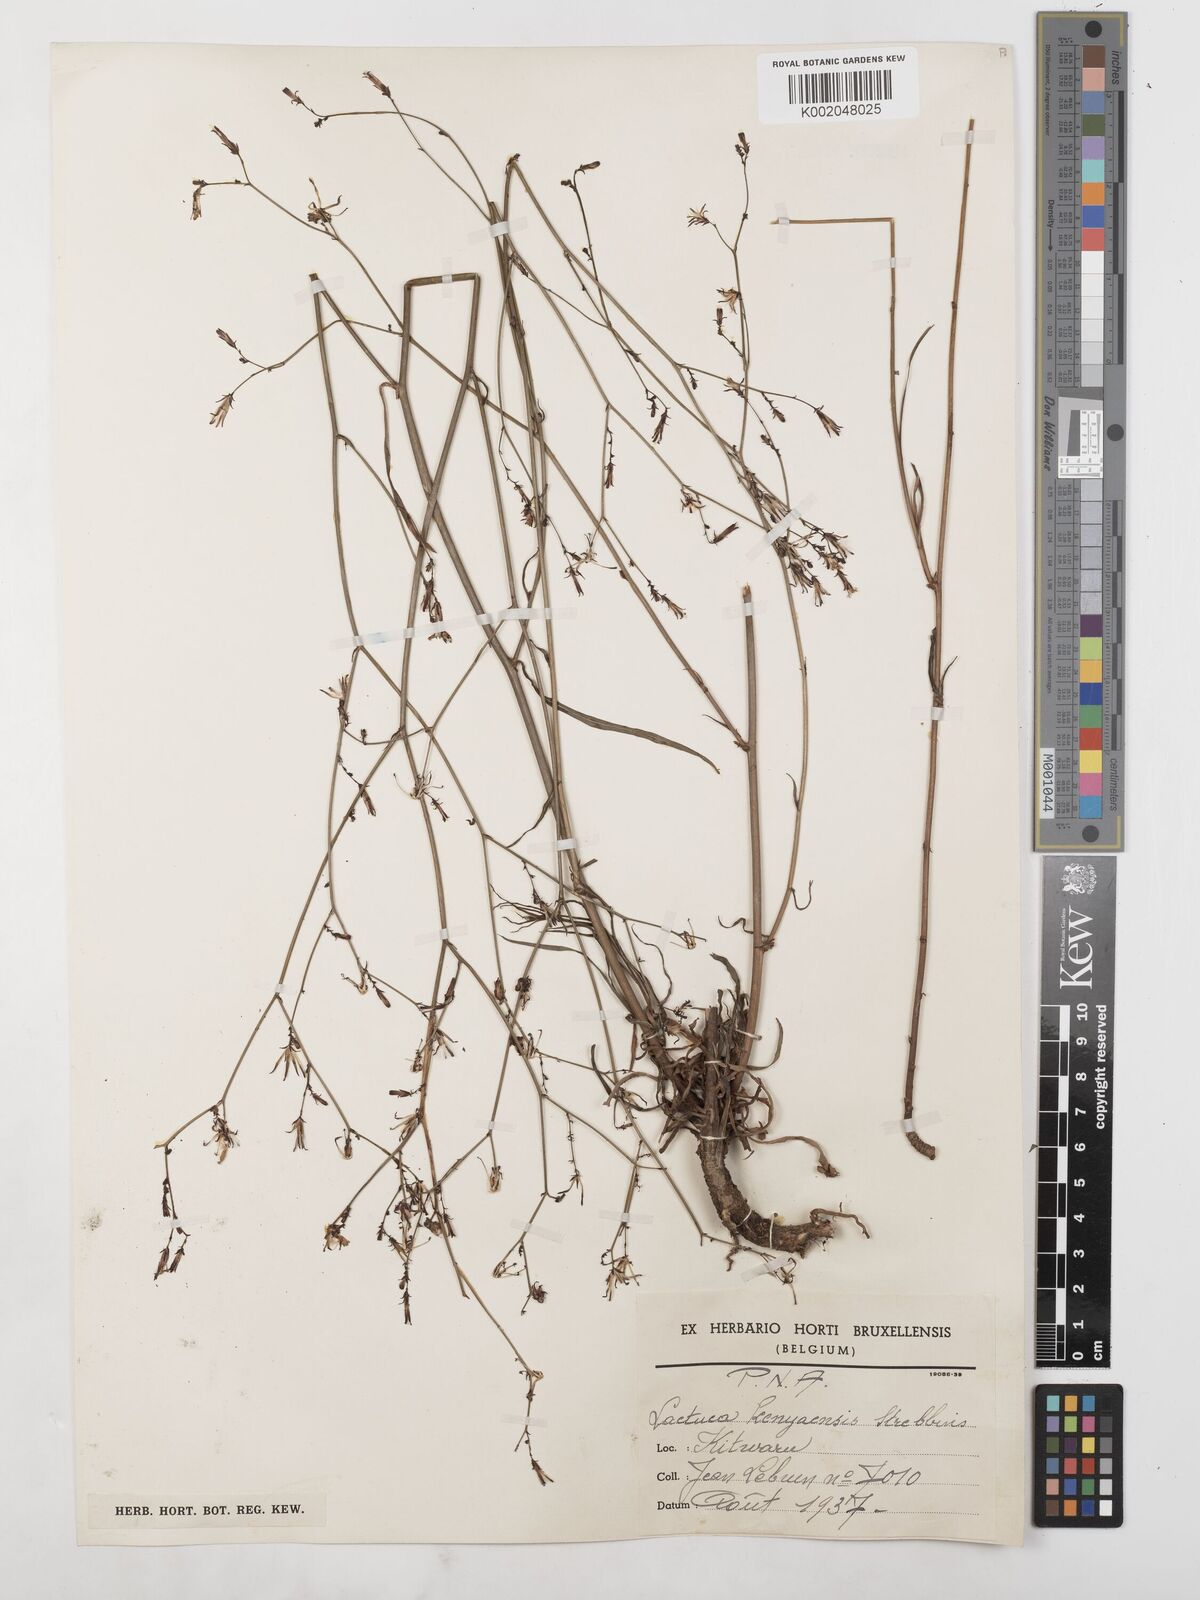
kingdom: Plantae
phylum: Tracheophyta
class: Magnoliopsida
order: Asterales
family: Asteraceae
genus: Lactuca
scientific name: Lactuca inermis
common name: Wild lettuce
